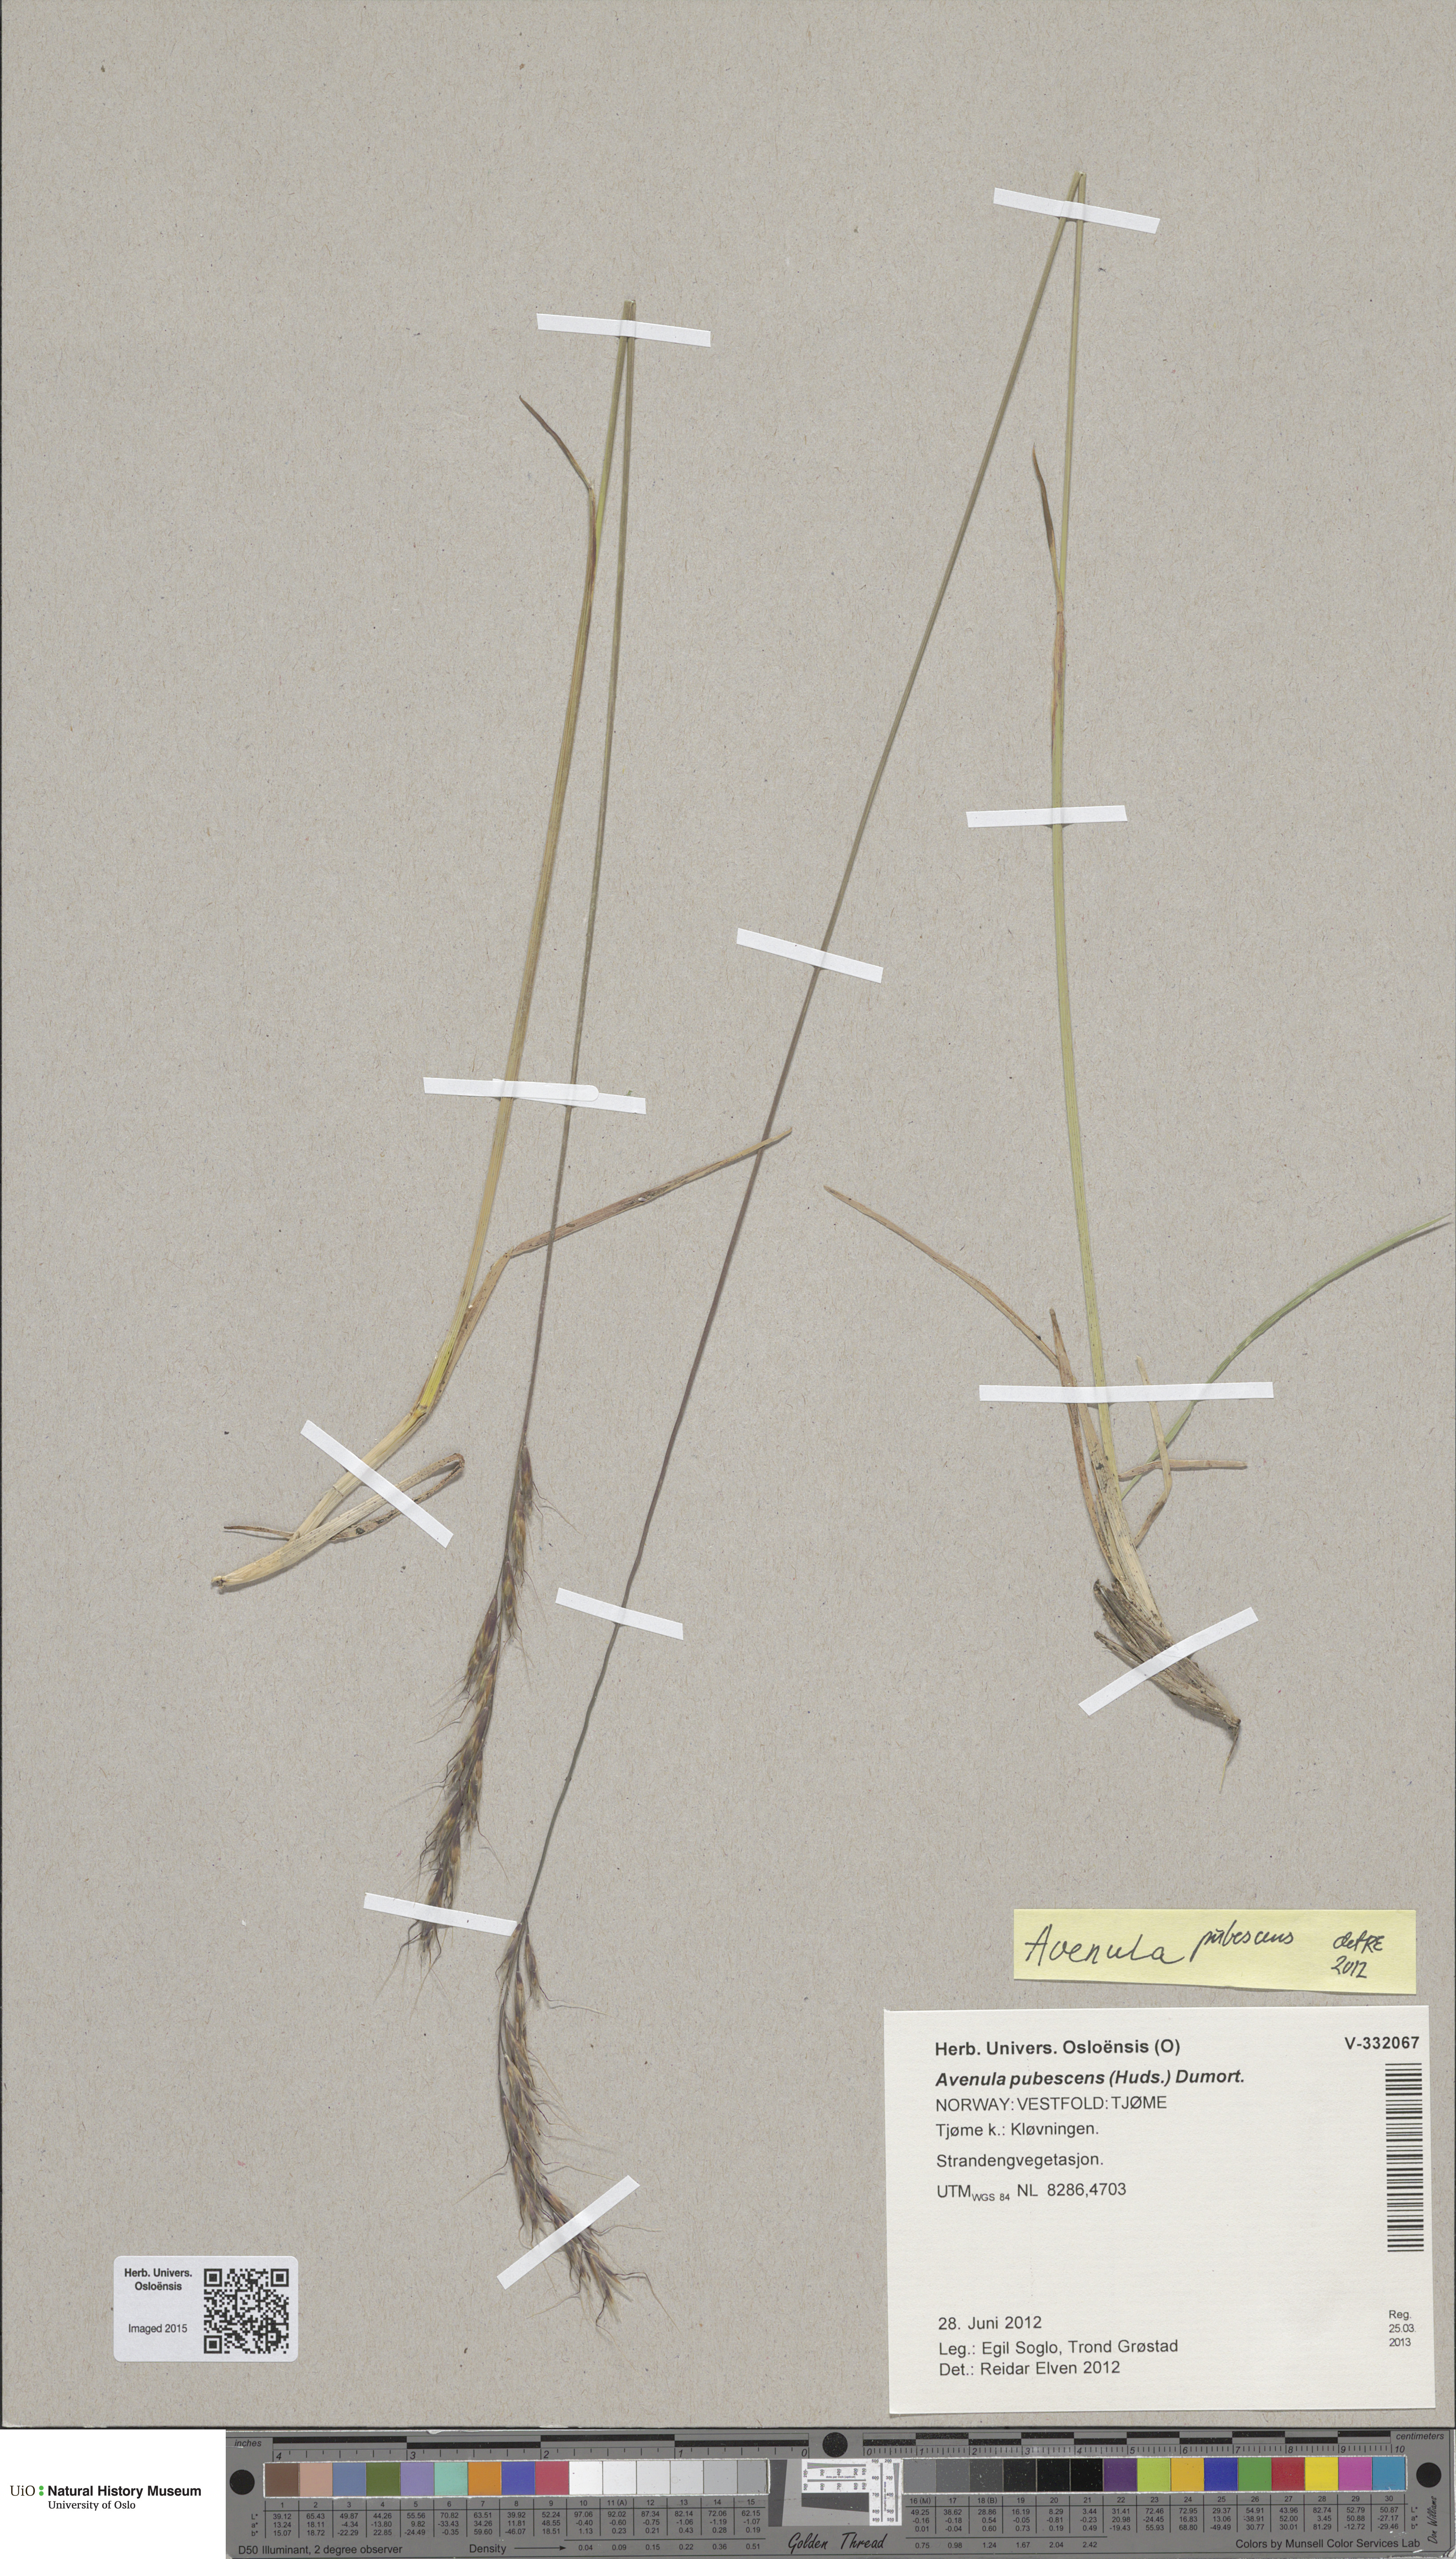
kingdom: Plantae
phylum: Tracheophyta
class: Liliopsida
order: Poales
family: Poaceae
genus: Avenula
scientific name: Avenula pubescens
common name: Downy alpine oatgrass
